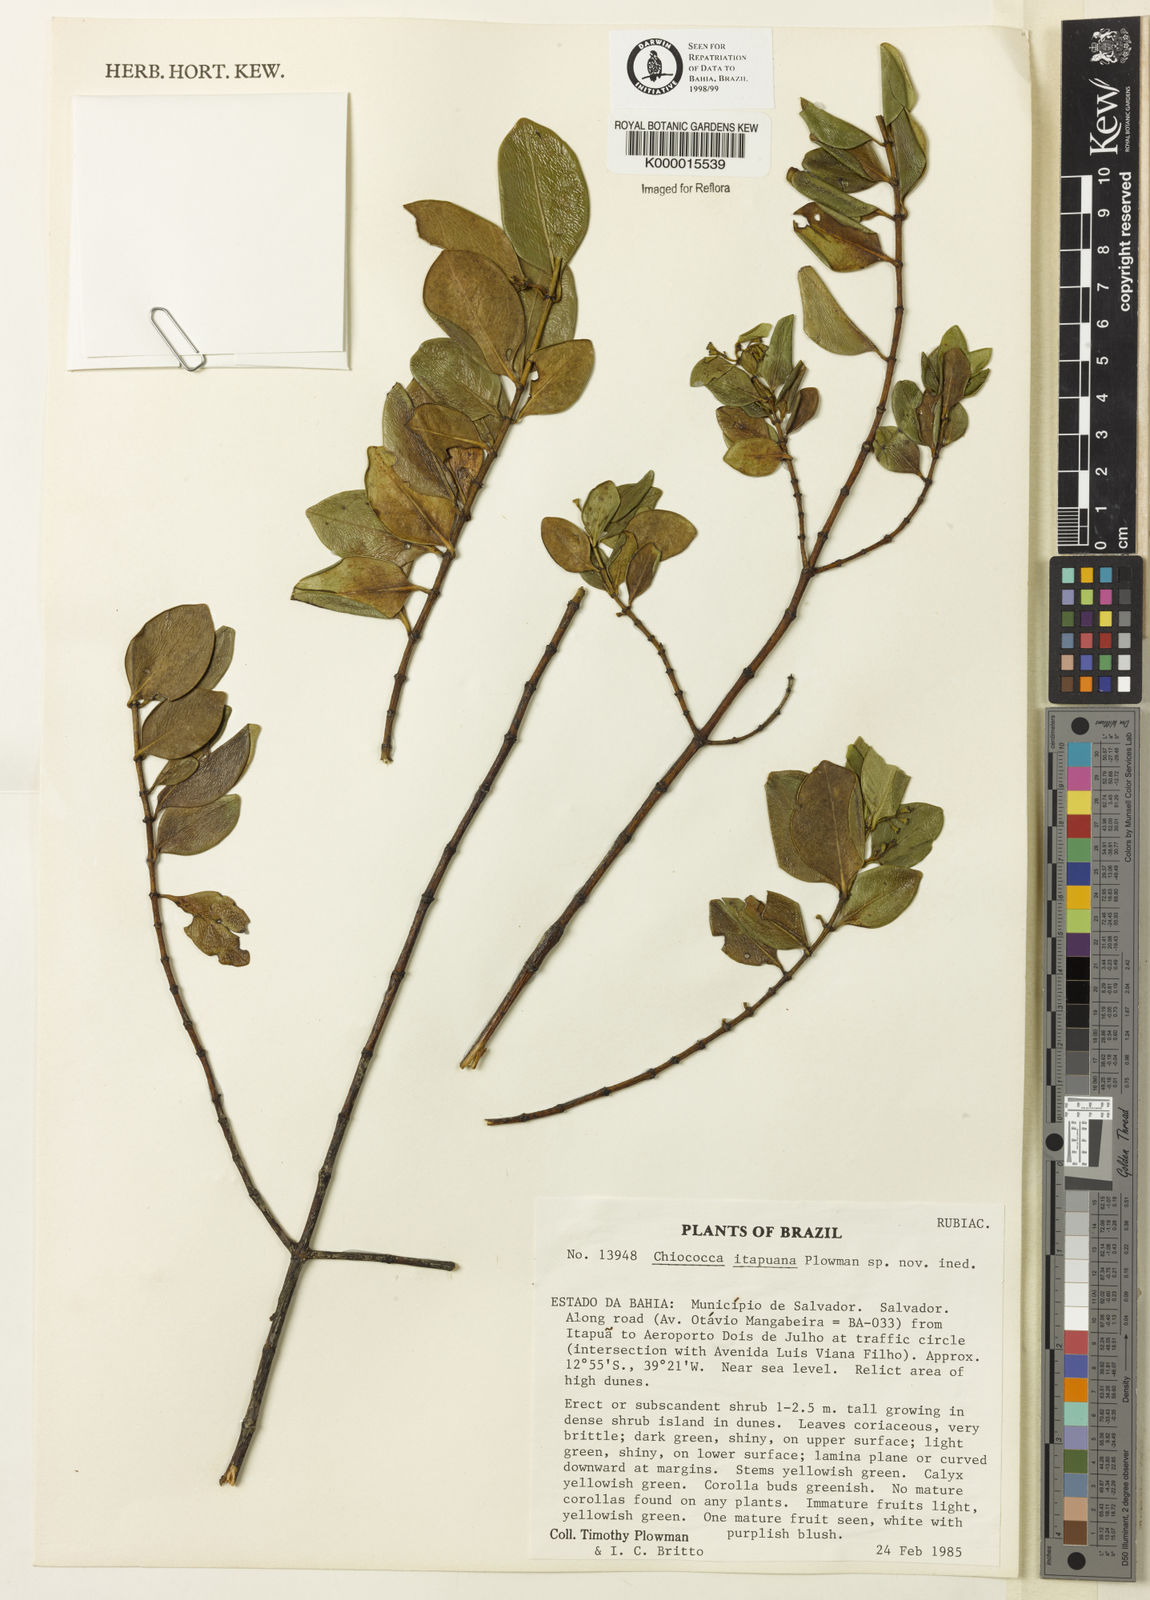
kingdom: Plantae
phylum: Tracheophyta
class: Magnoliopsida
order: Gentianales
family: Rubiaceae
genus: Chiococca
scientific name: Chiococca
